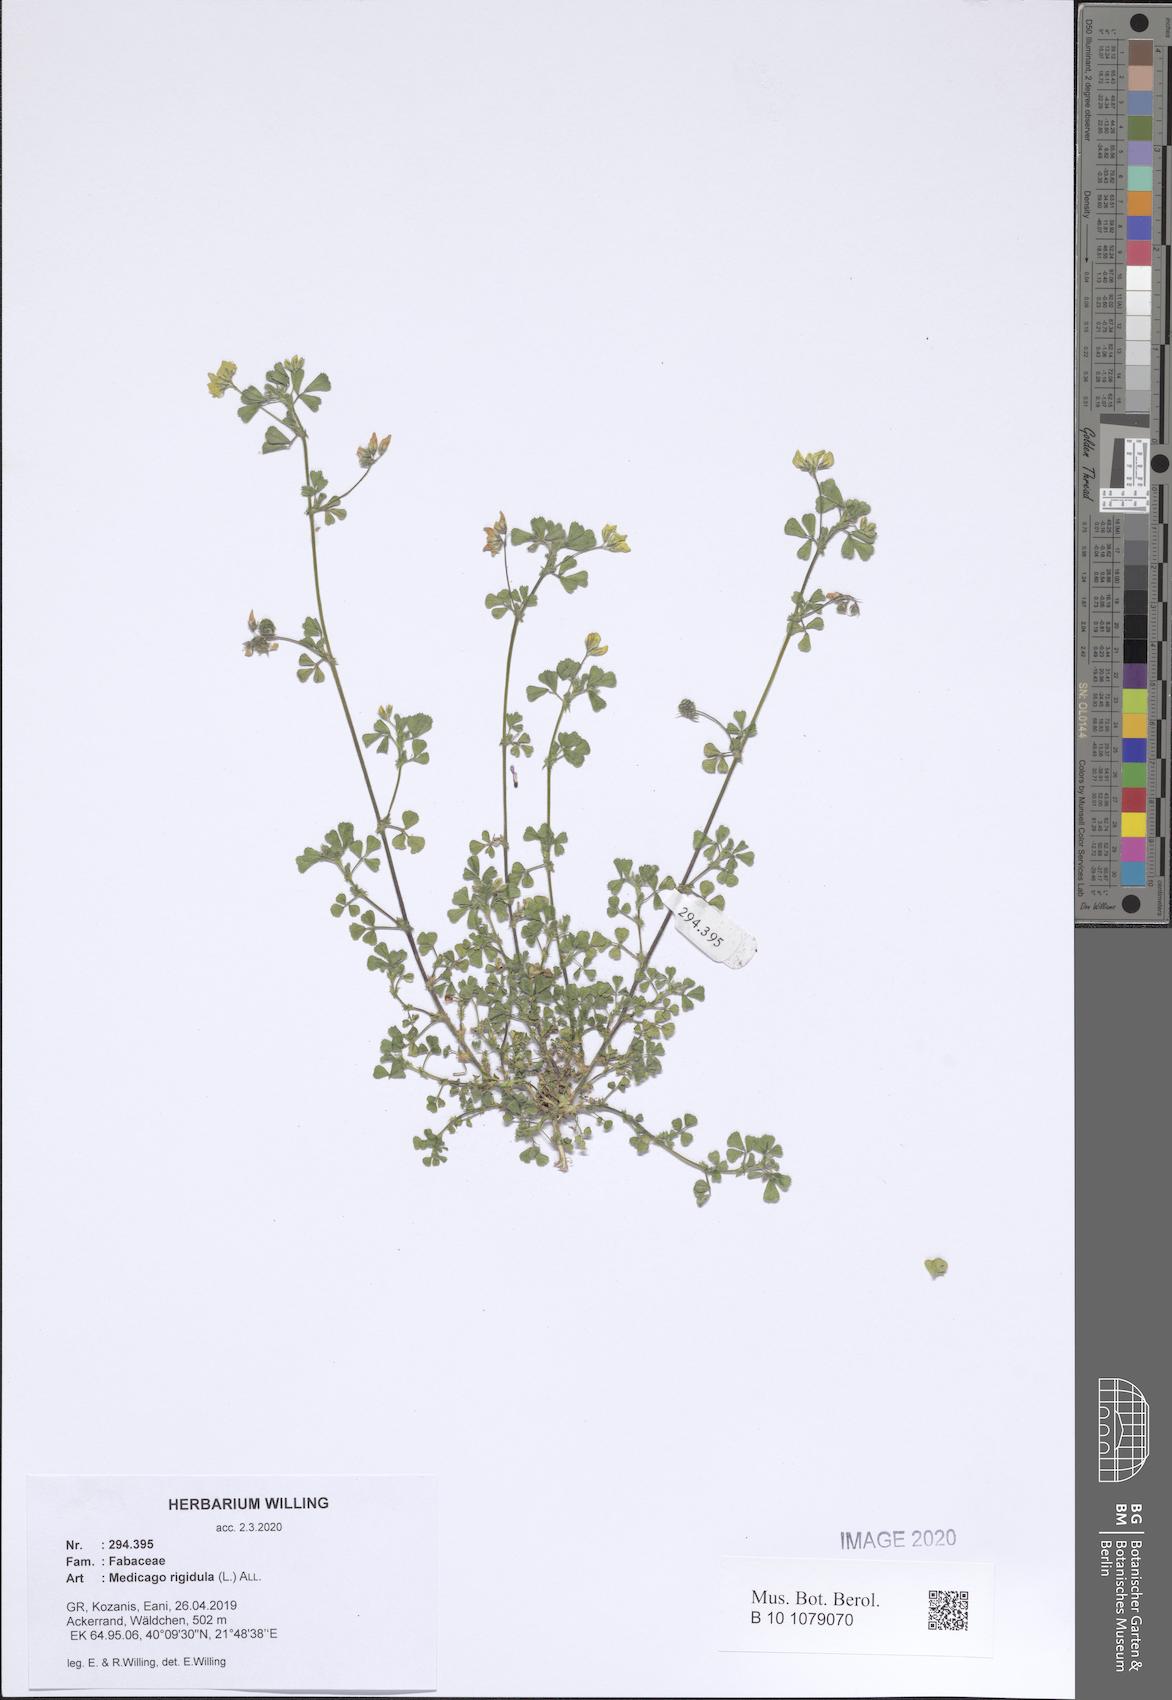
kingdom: Plantae
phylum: Tracheophyta
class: Magnoliopsida
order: Fabales
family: Fabaceae
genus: Medicago
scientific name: Medicago rigidula
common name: Tifton medic
